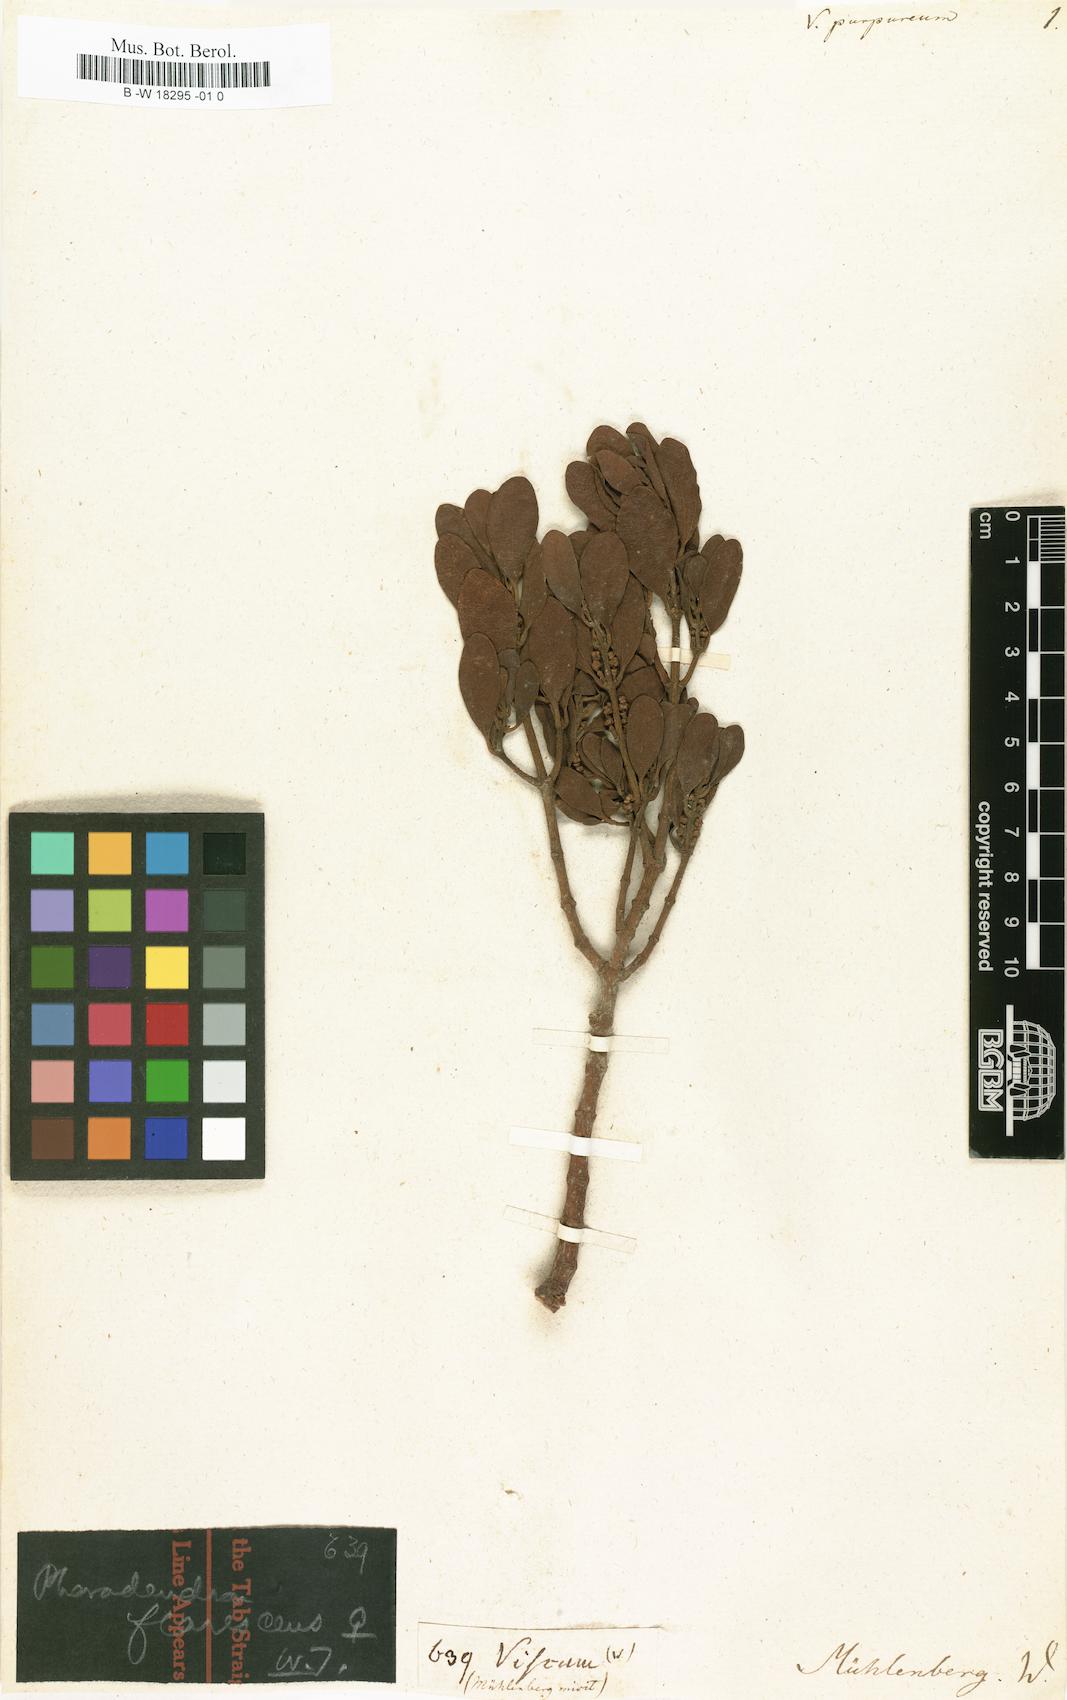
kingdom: Plantae
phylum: Tracheophyta
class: Magnoliopsida
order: Santalales
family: Loranthaceae
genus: Dendropemon
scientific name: Dendropemon purpureus
